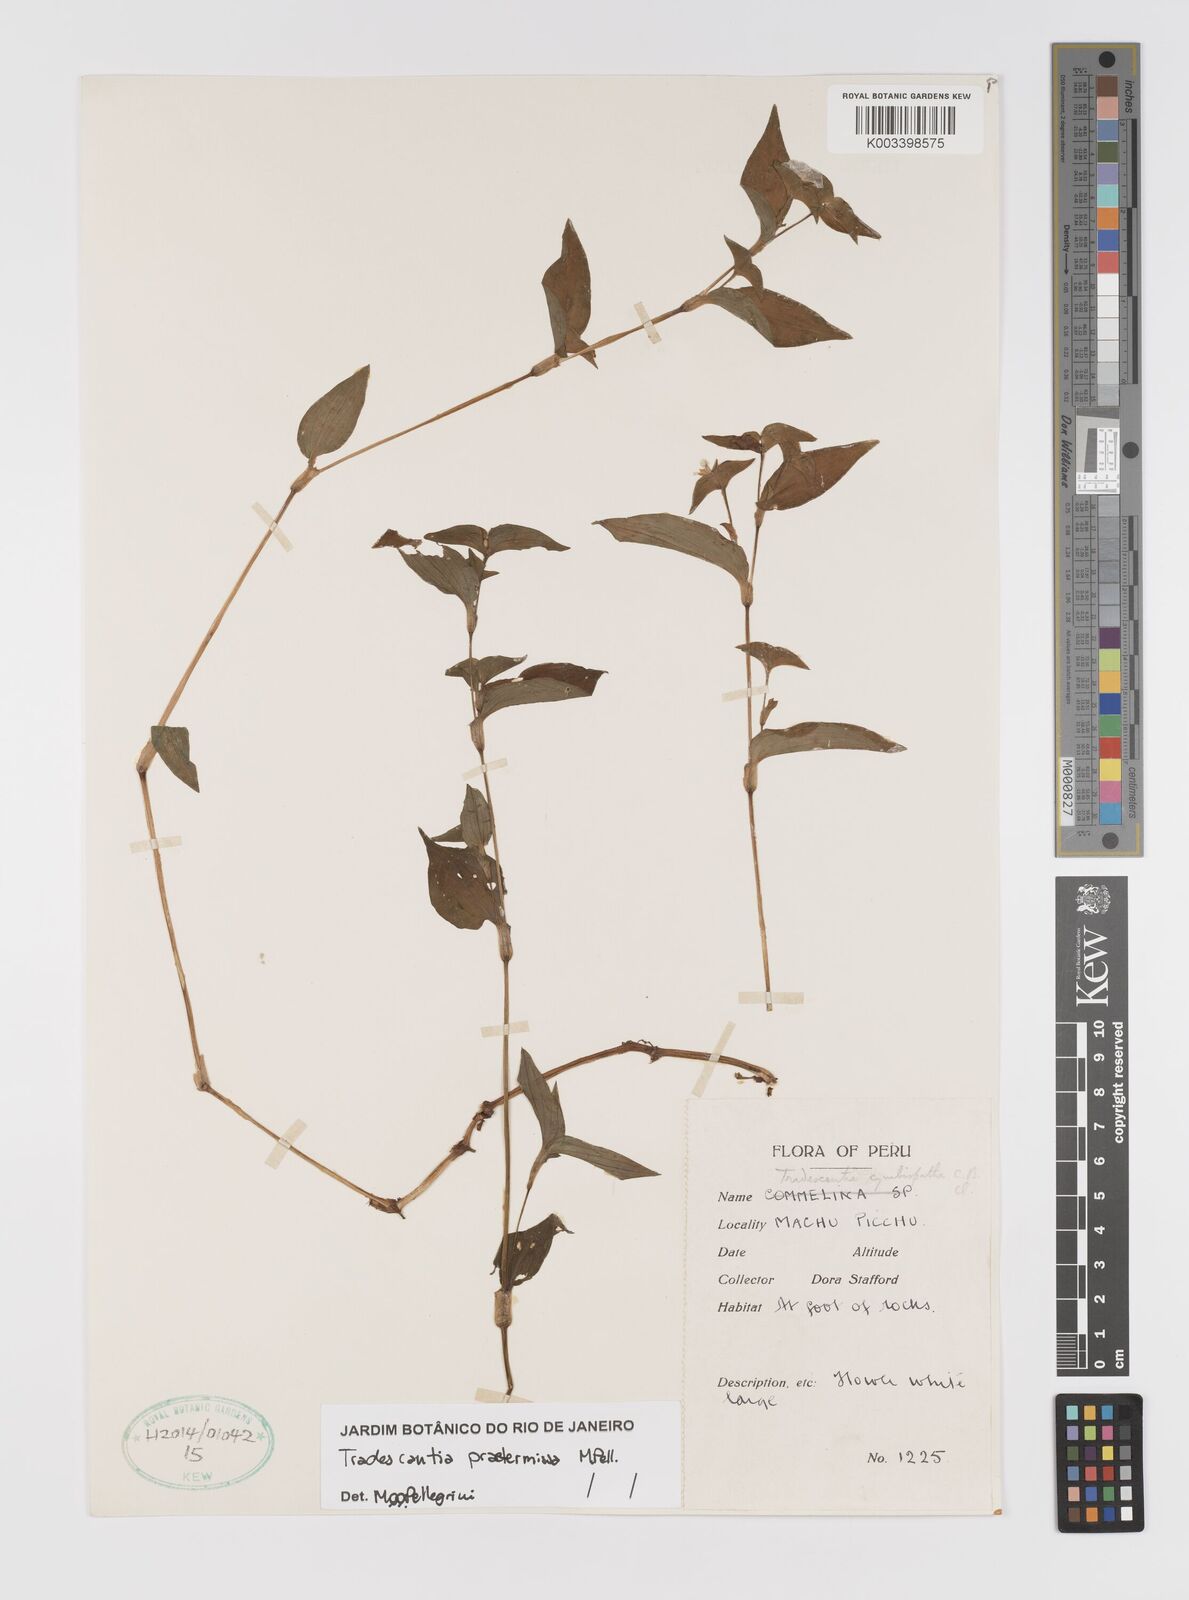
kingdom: Plantae
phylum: Tracheophyta
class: Liliopsida
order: Commelinales
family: Commelinaceae
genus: Tradescantia
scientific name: Tradescantia praetermissa
